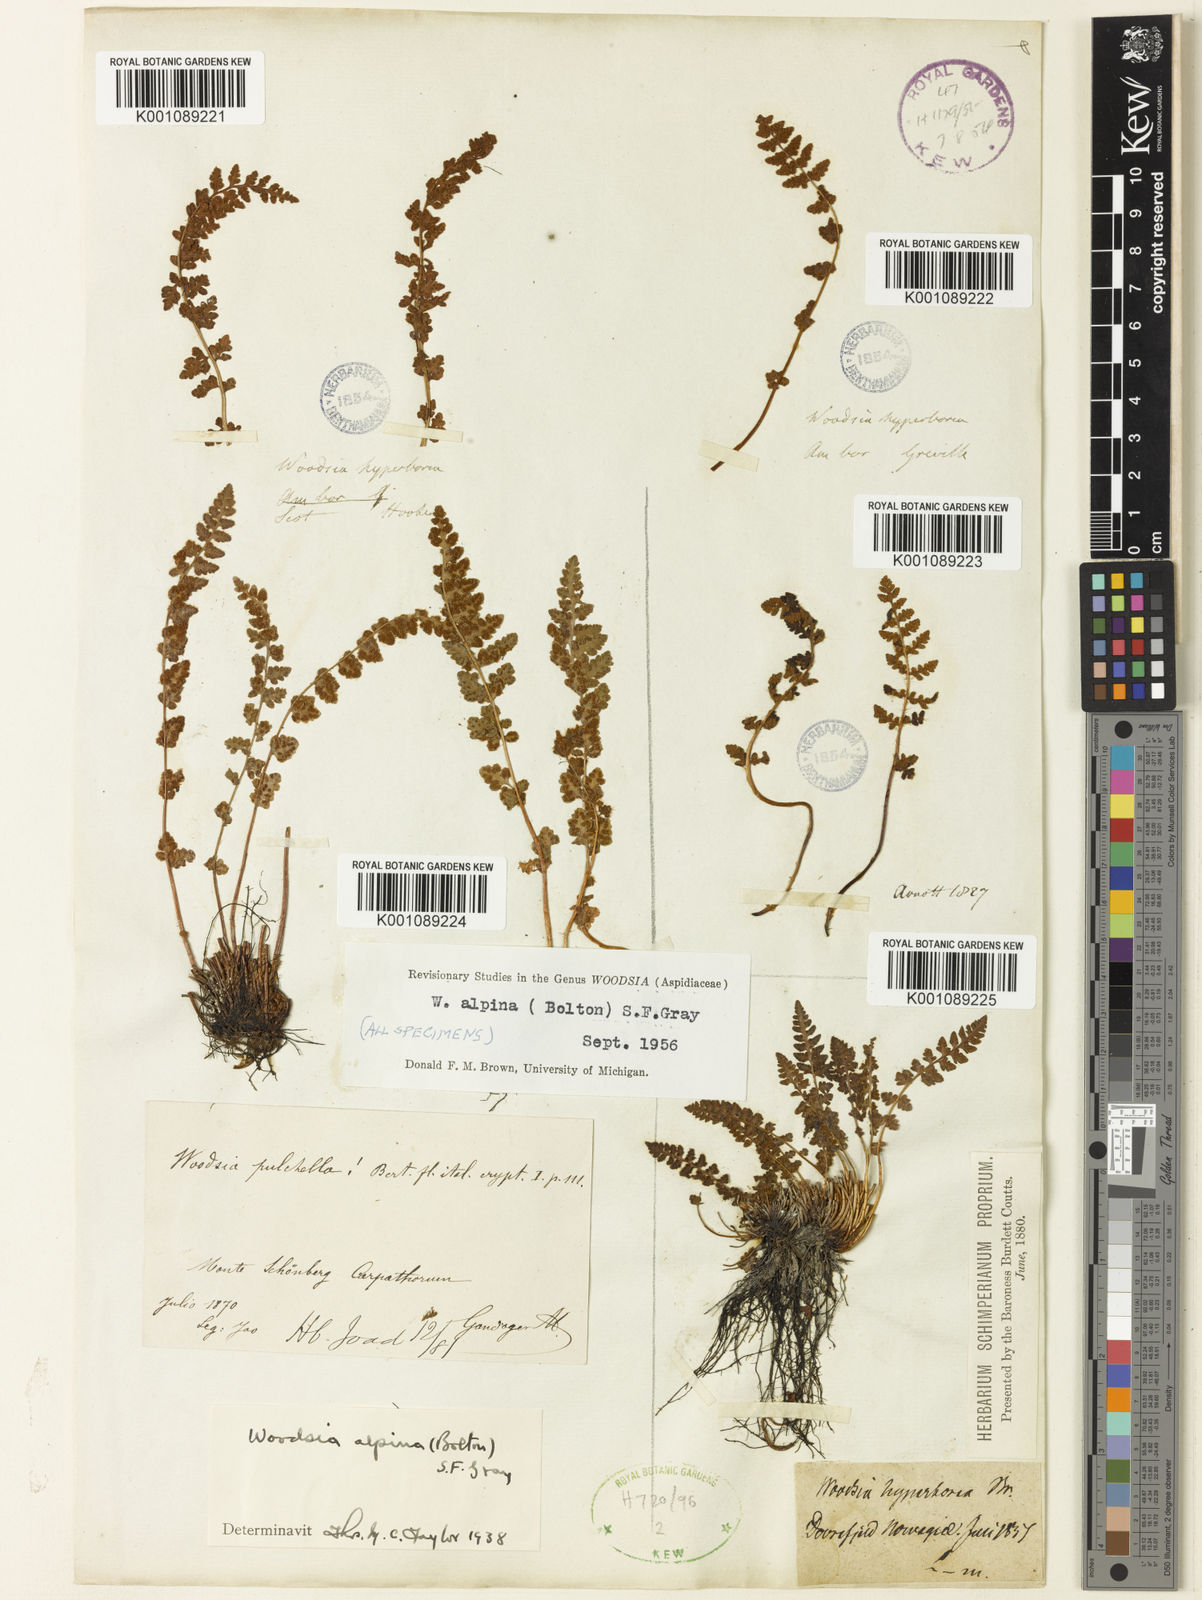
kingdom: Plantae
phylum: Tracheophyta
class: Polypodiopsida
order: Polypodiales
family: Woodsiaceae
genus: Woodsia
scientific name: Woodsia alpina
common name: Alpine woodsia
